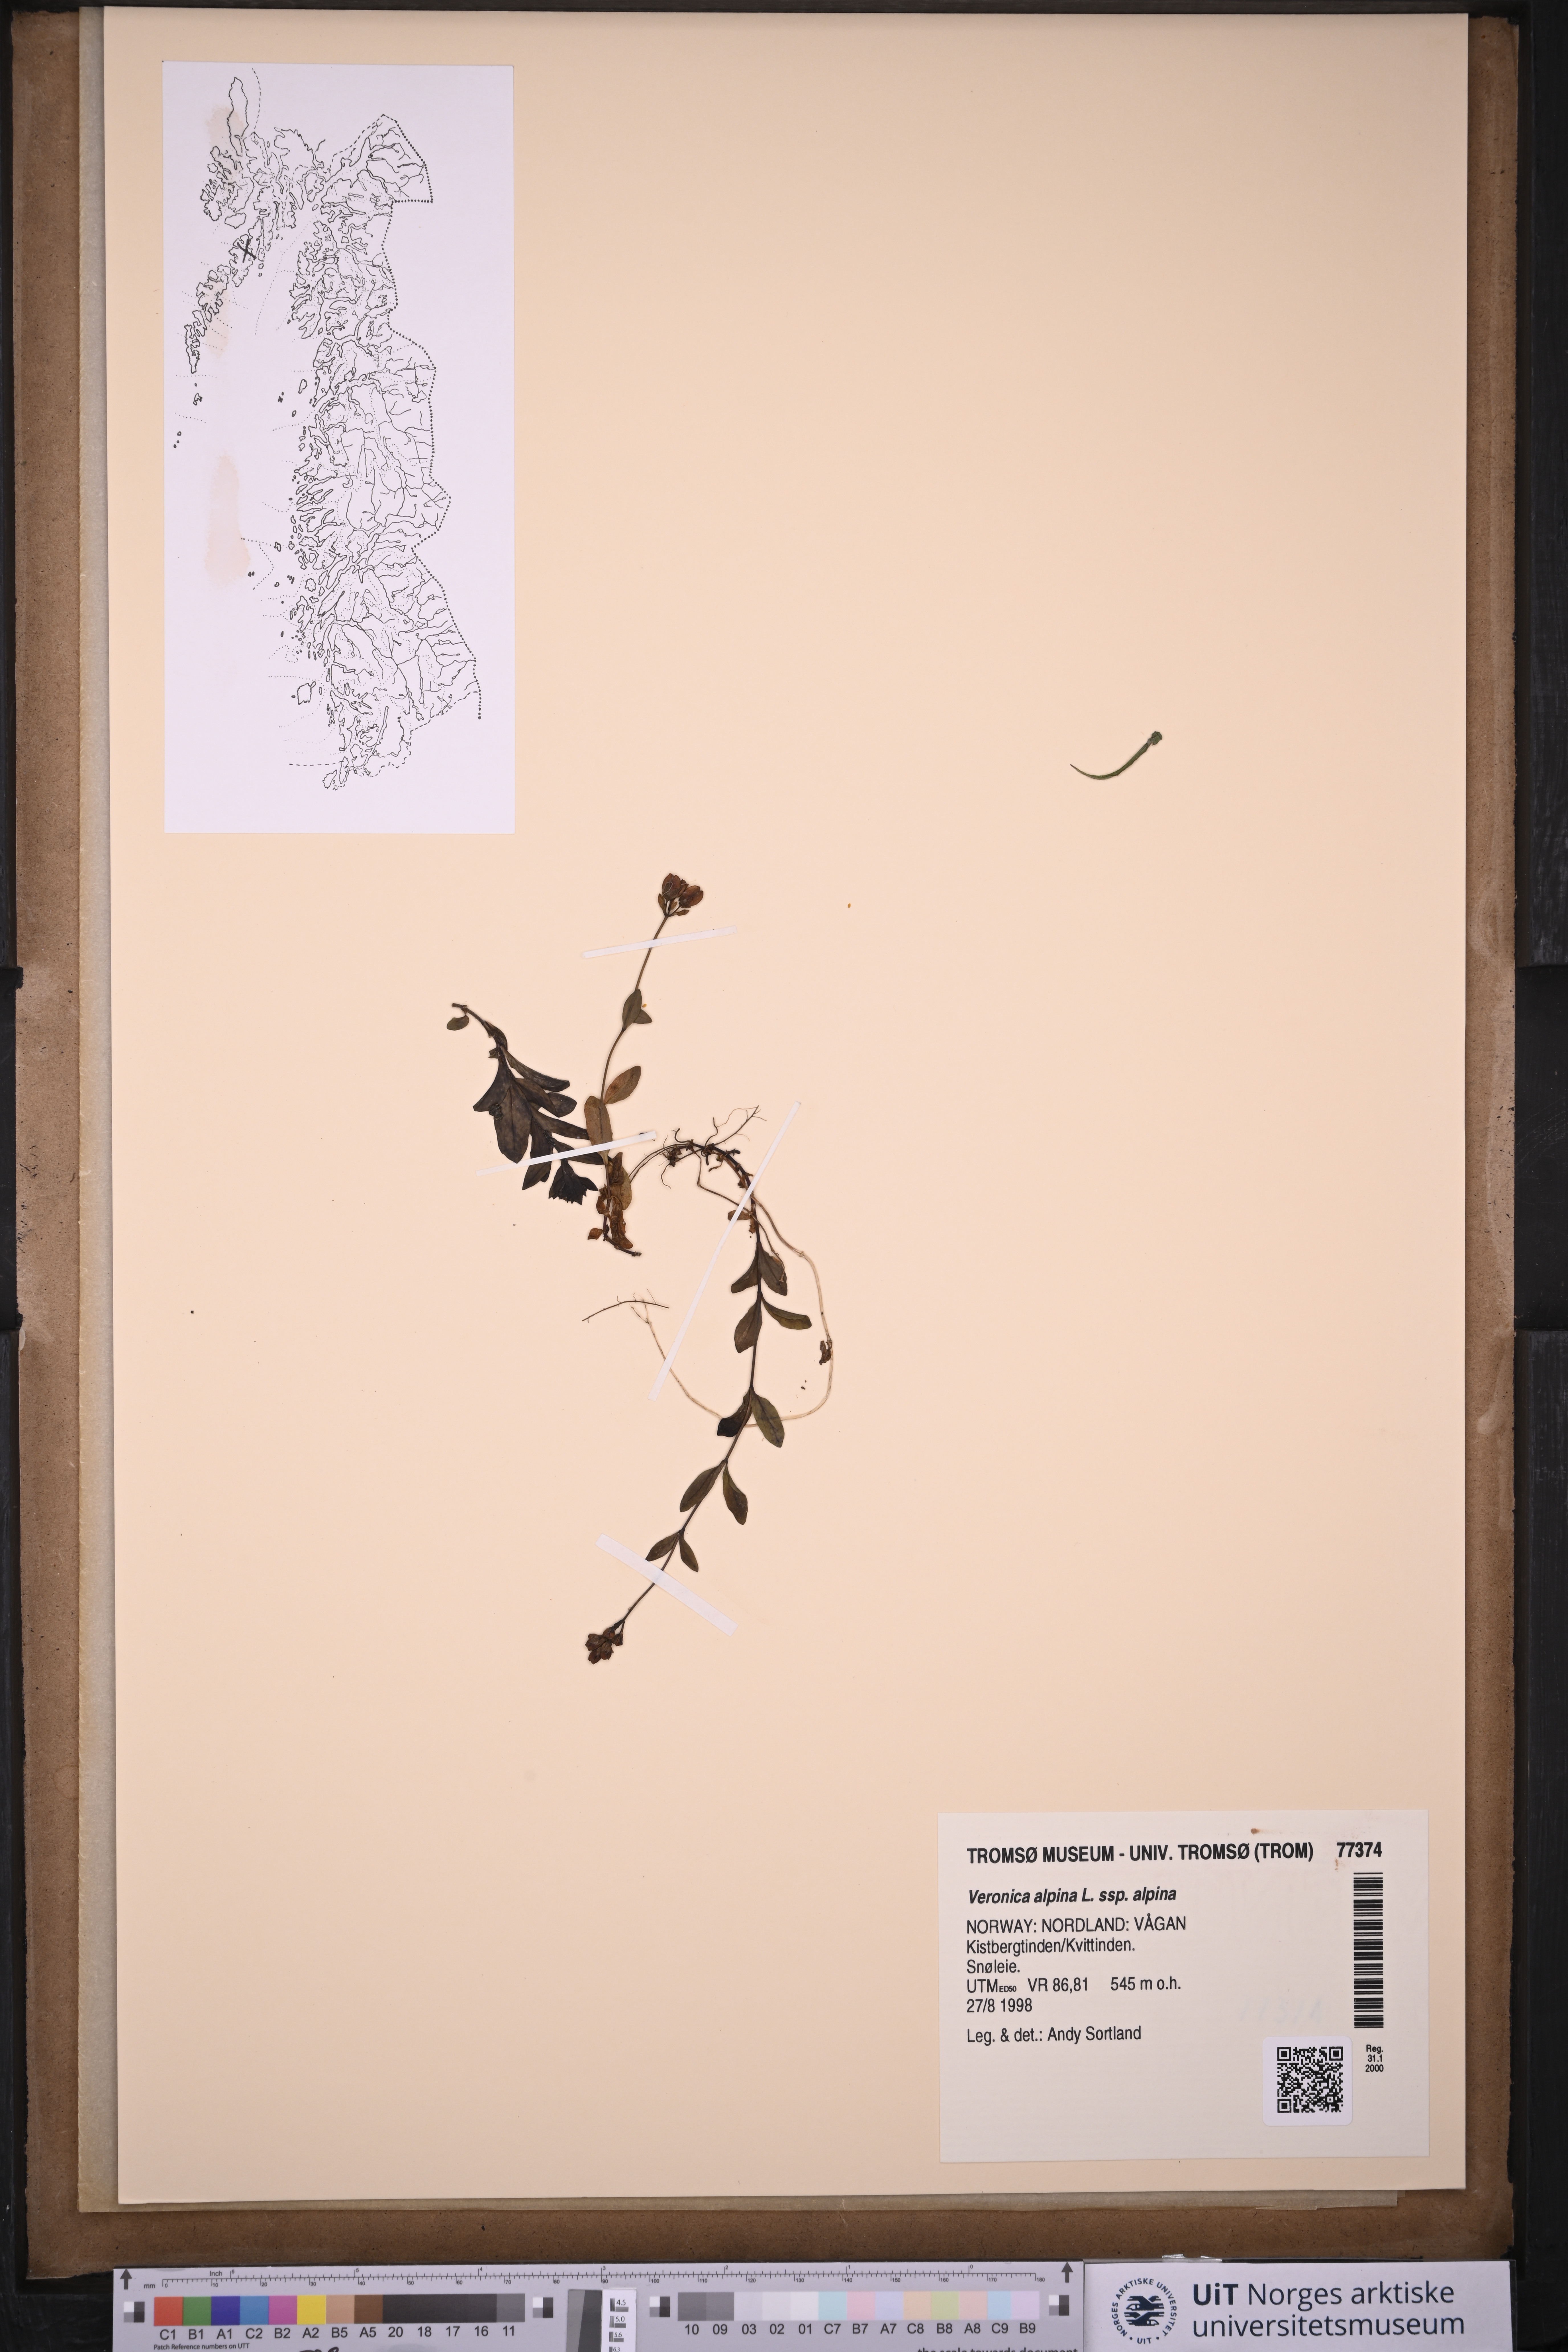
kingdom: Plantae
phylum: Tracheophyta
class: Magnoliopsida
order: Lamiales
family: Plantaginaceae
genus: Veronica
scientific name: Veronica alpina
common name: Alpine speedwell
